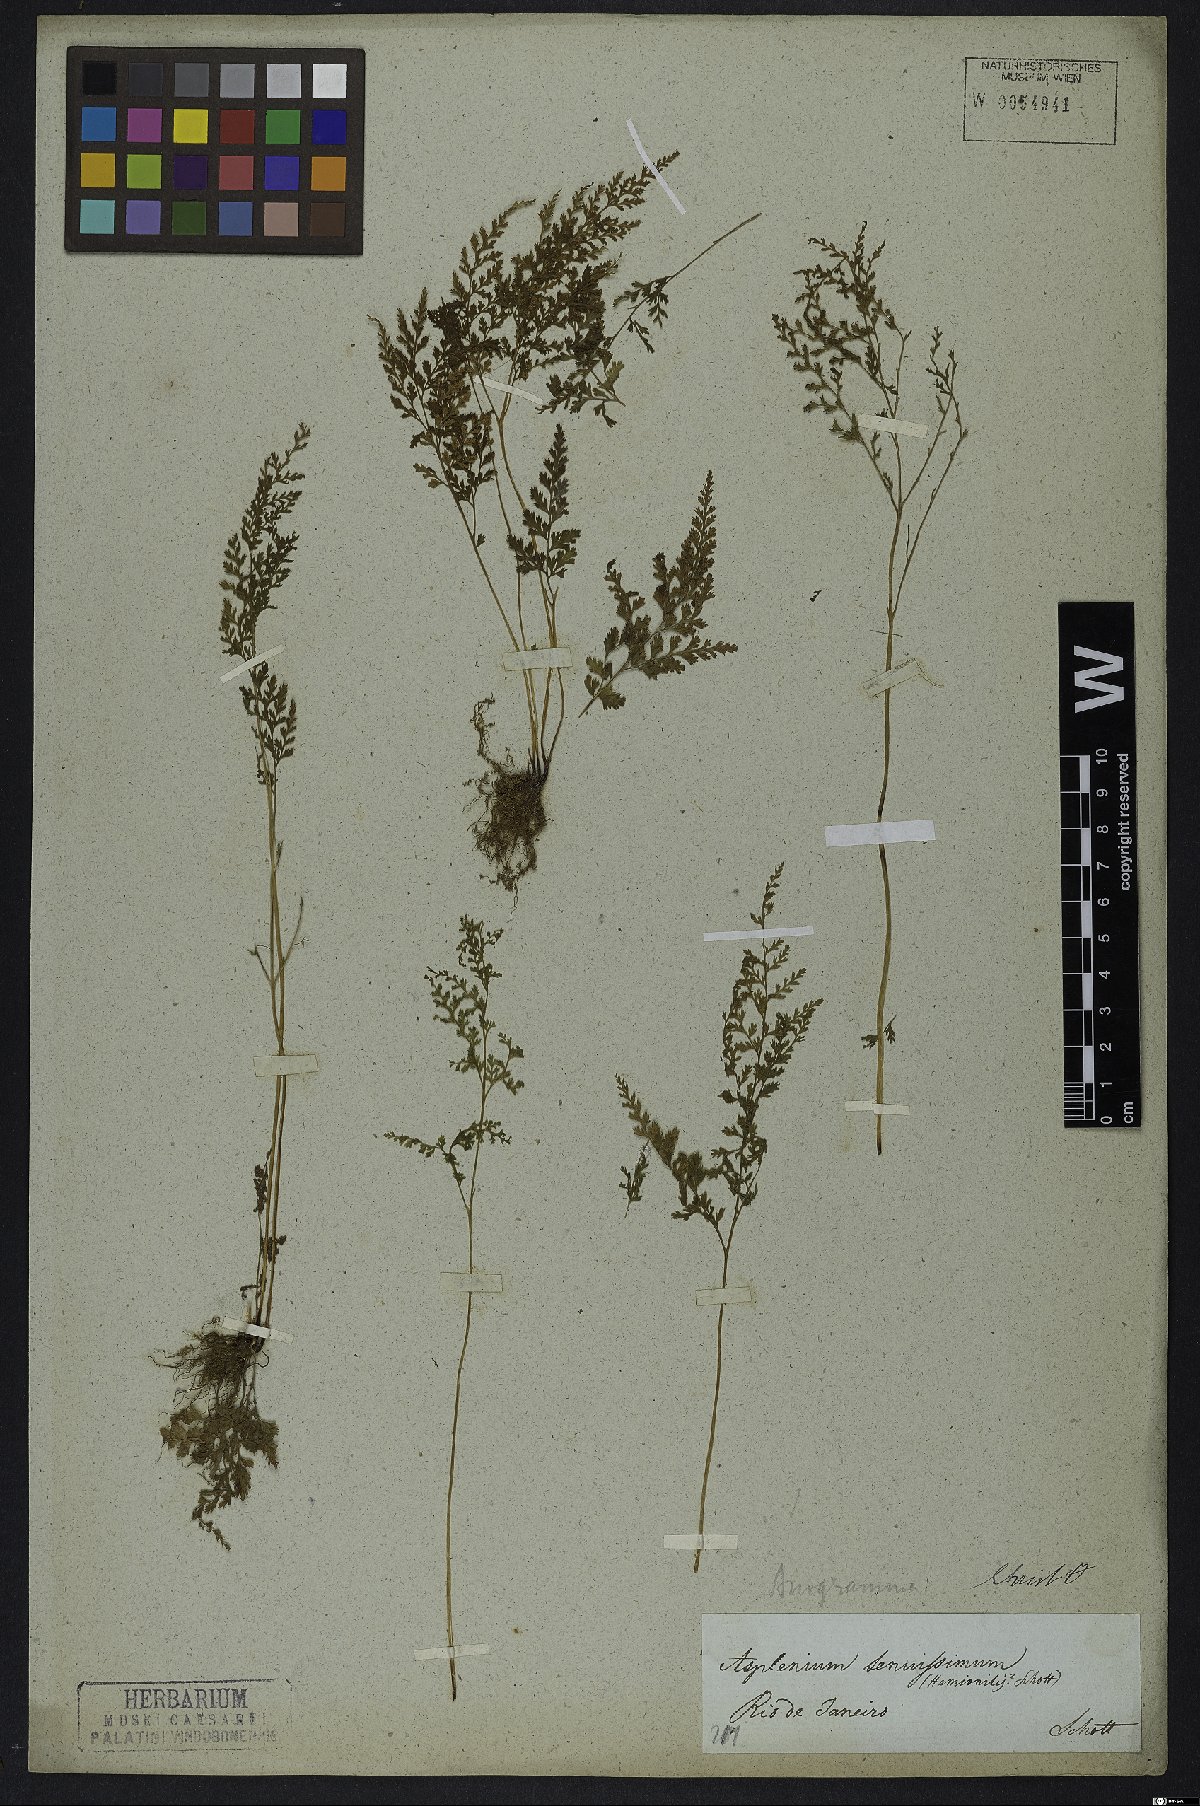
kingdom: Plantae
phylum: Tracheophyta
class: Polypodiopsida
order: Polypodiales
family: Pteridaceae
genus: Anogramma
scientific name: Anogramma
